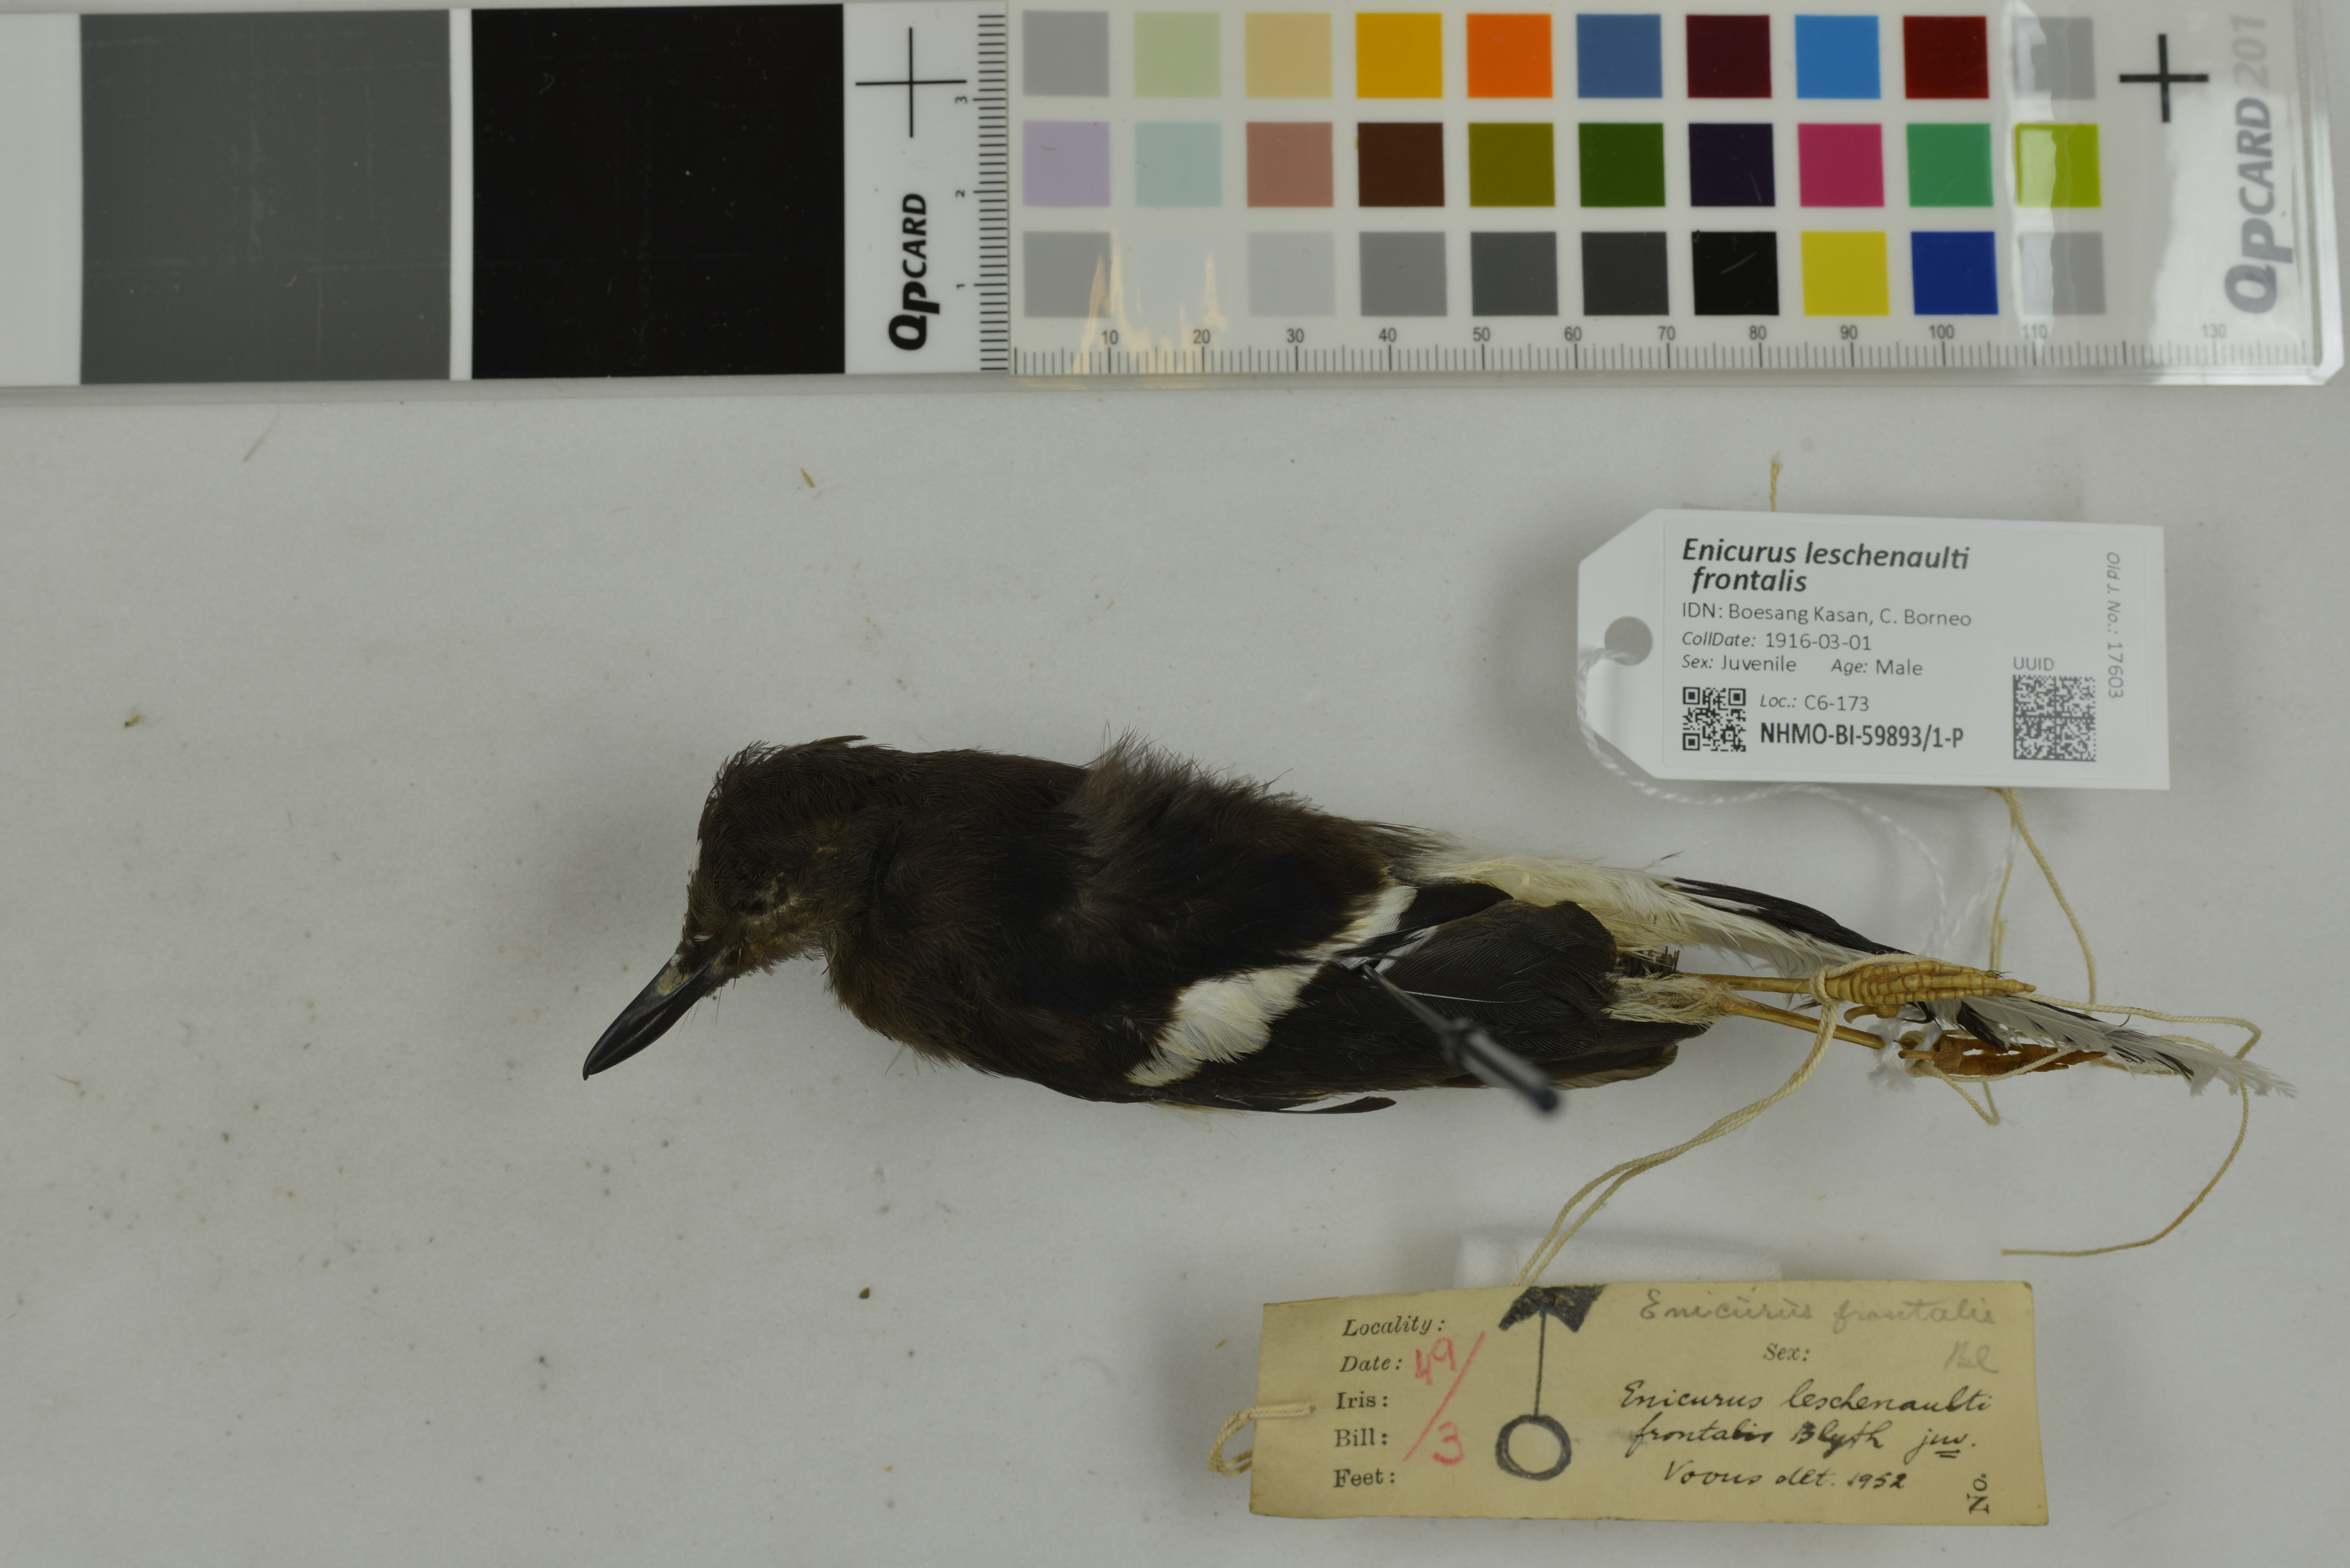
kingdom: Animalia
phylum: Chordata
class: Aves
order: Passeriformes
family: Muscicapidae
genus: Enicurus
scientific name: Enicurus leschenaulti
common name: White-crowned forktail
